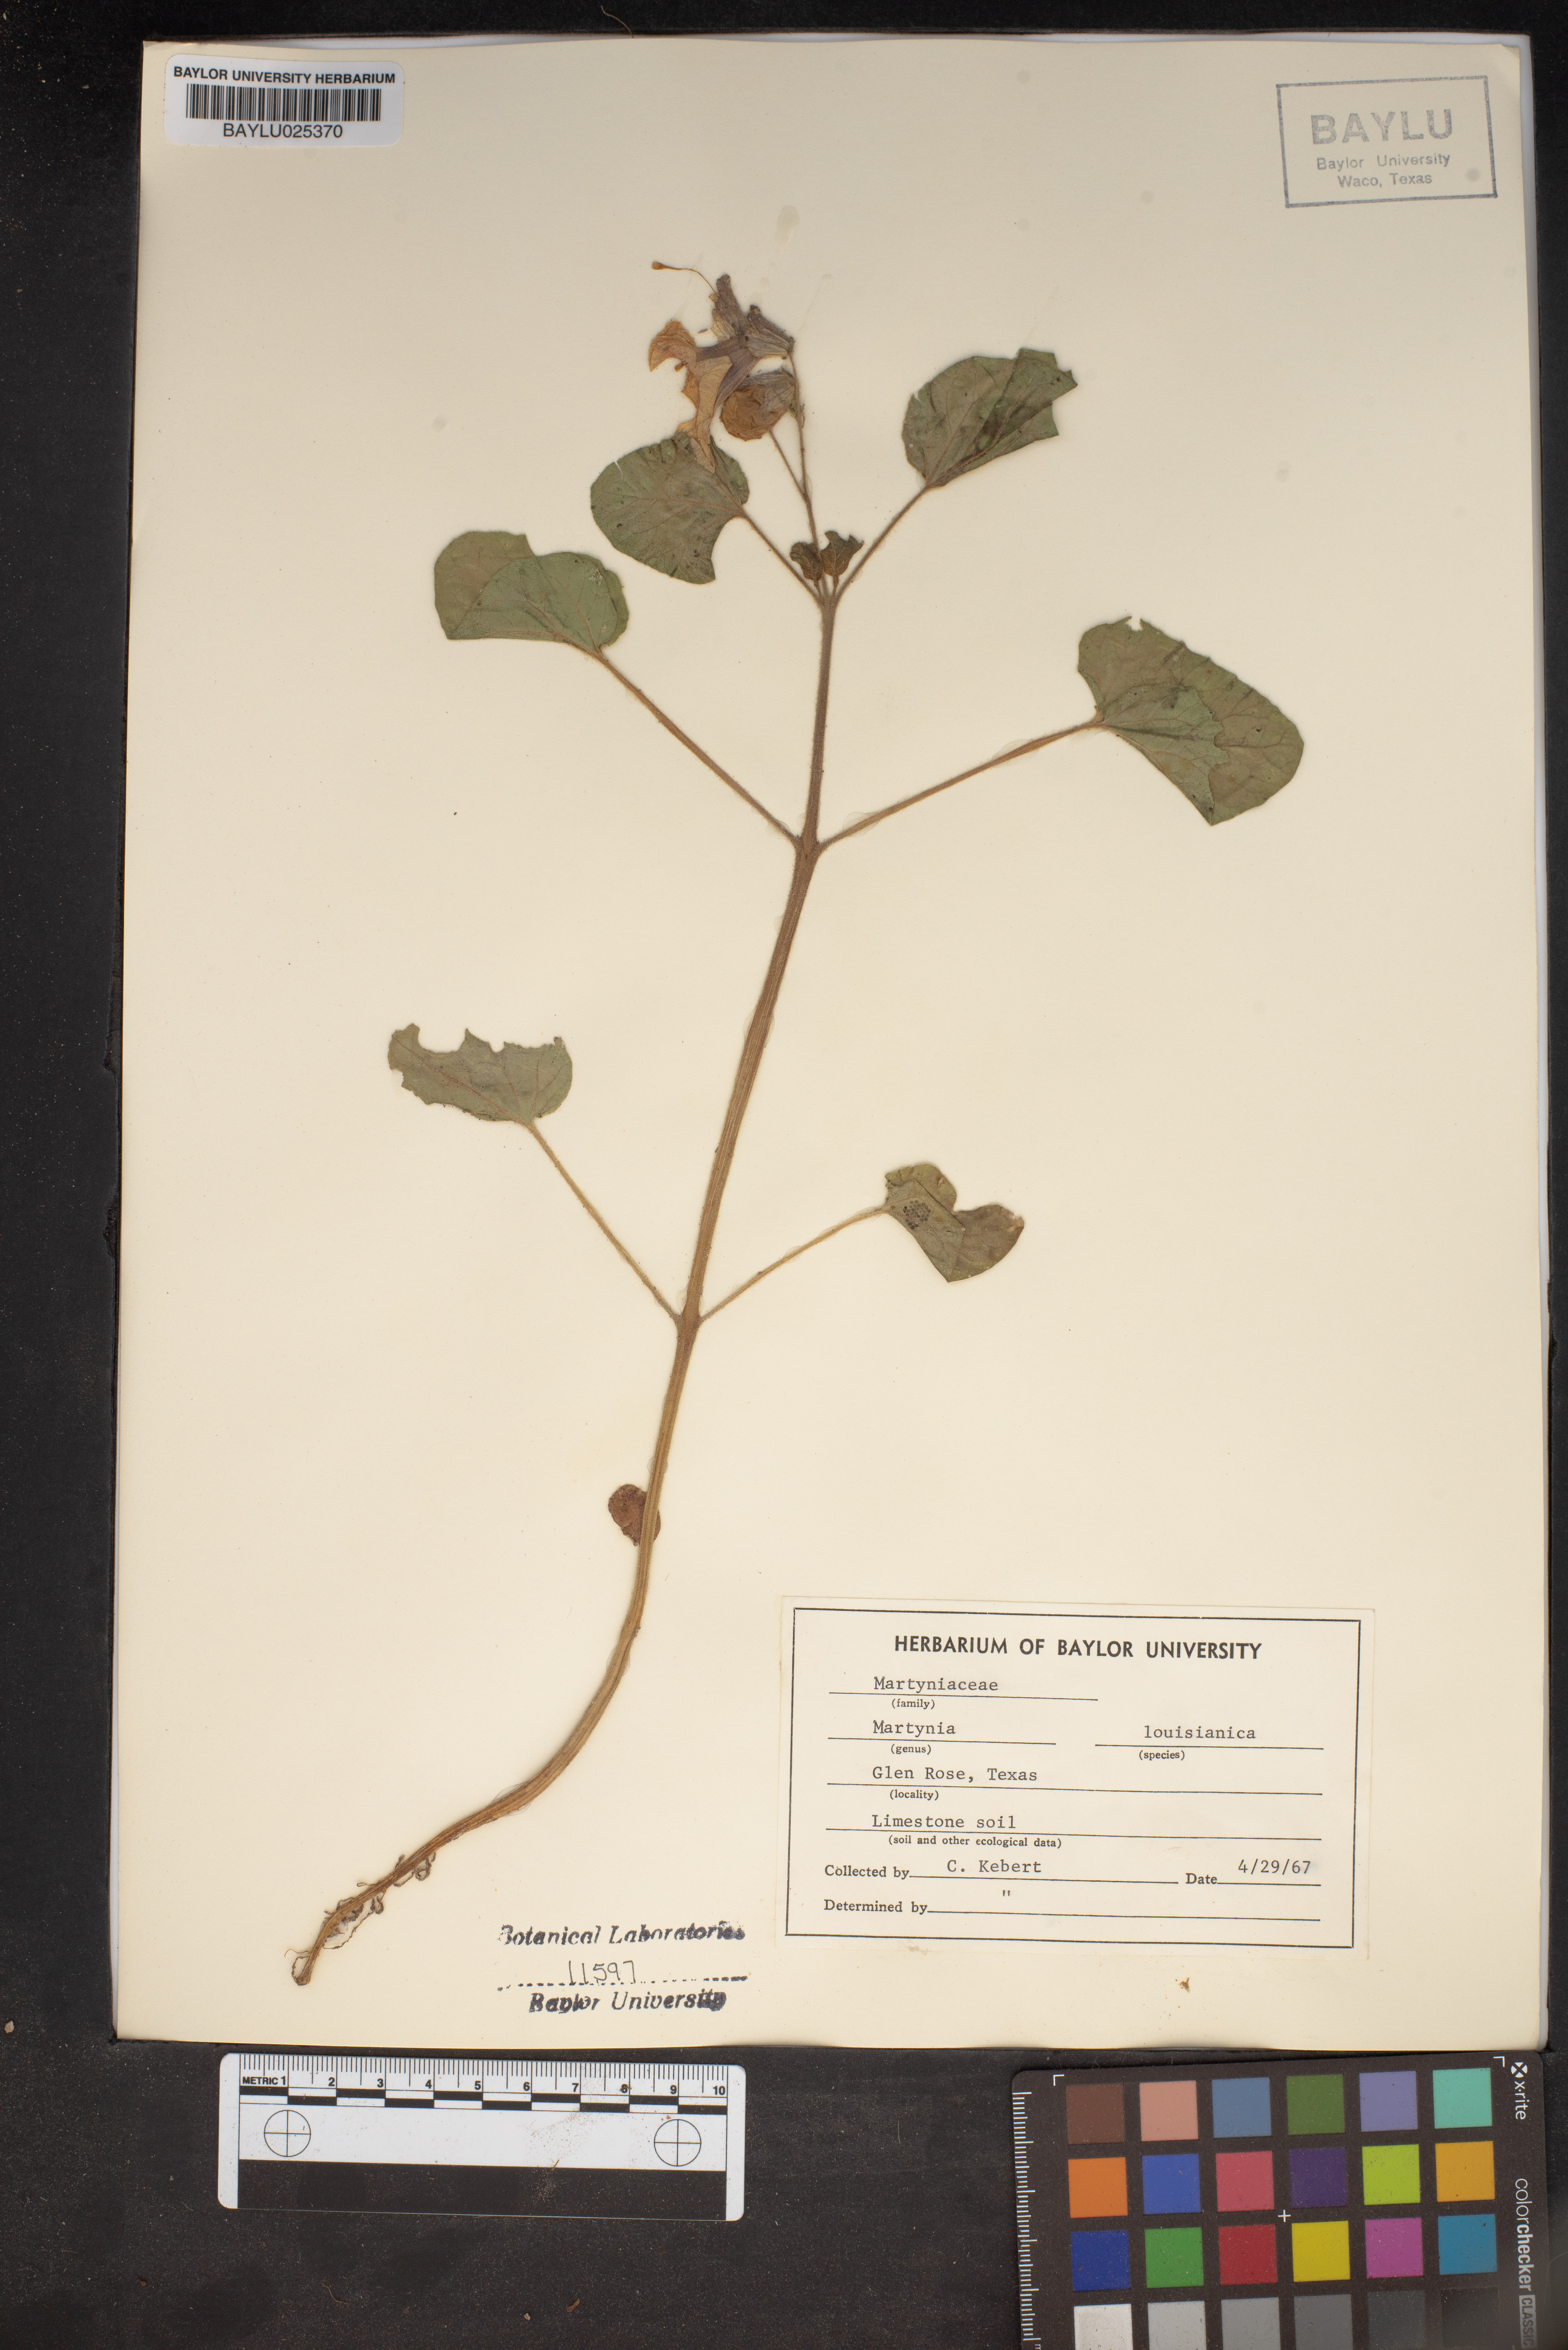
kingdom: Plantae
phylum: Tracheophyta
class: Magnoliopsida
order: Lamiales
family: Martyniaceae
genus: Proboscidea
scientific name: Proboscidea louisianica
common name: Elephant tusks
